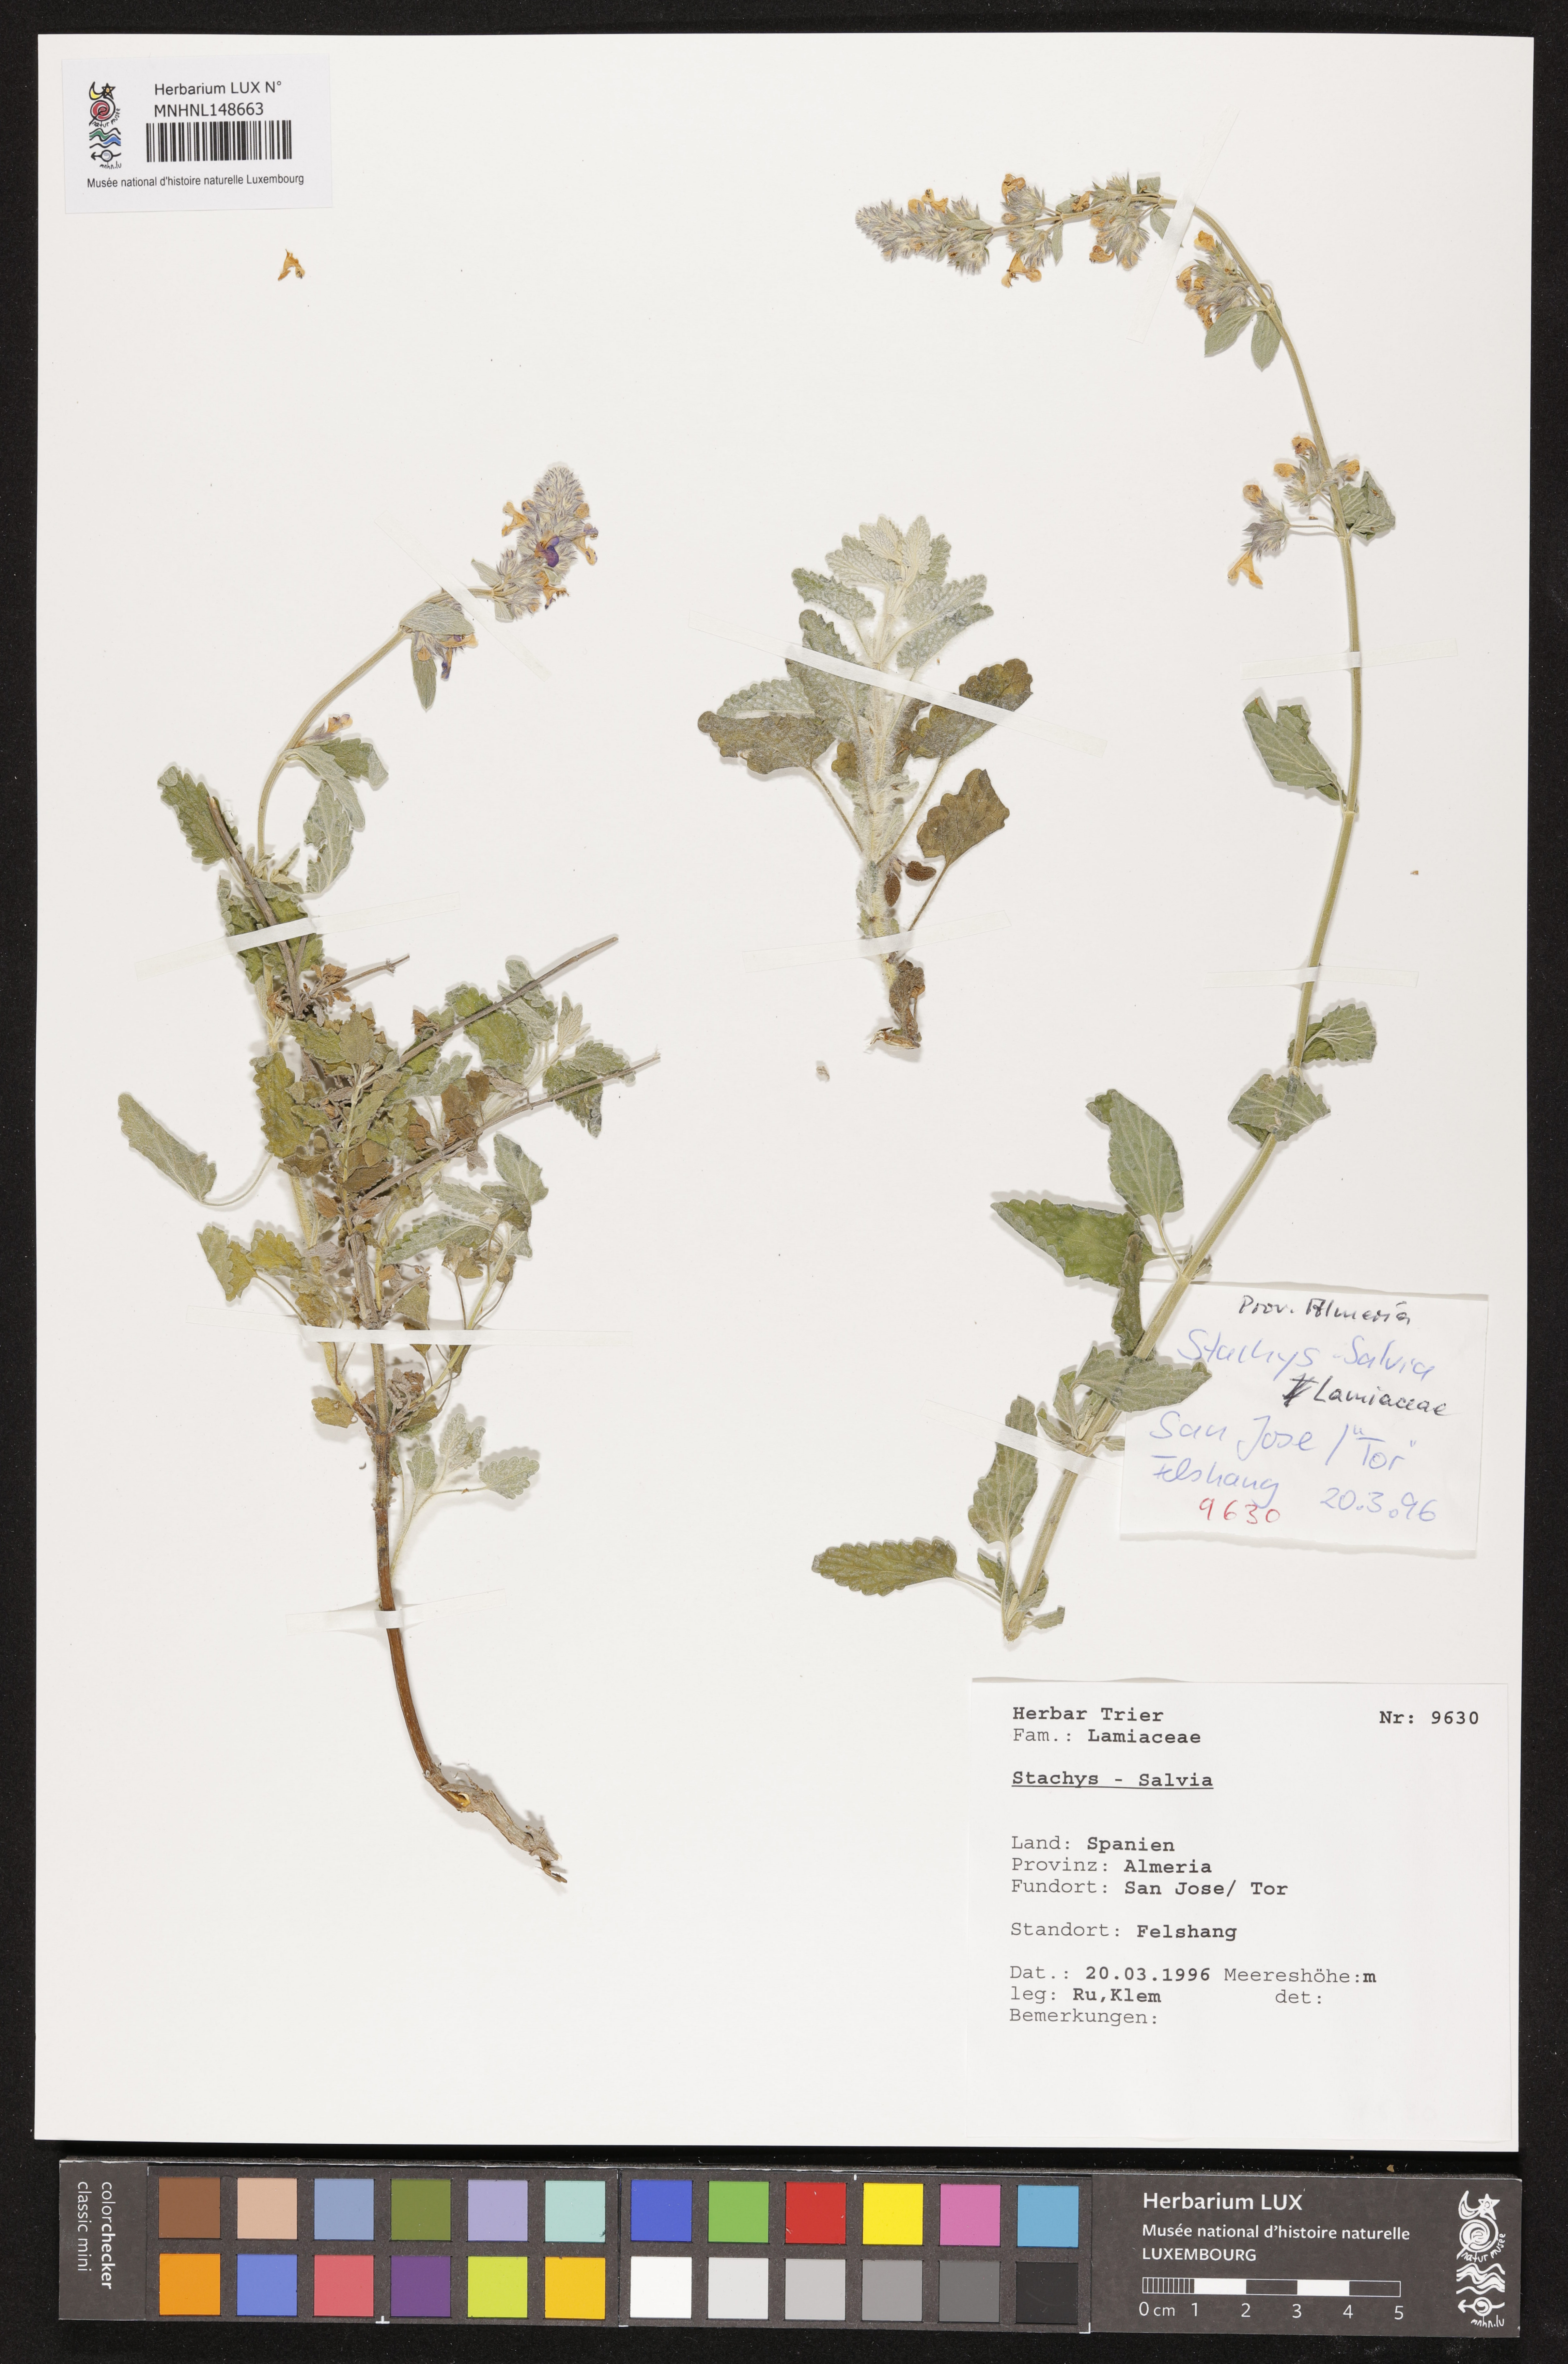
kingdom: Plantae
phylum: Tracheophyta
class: Magnoliopsida
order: Lamiales
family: Lamiaceae
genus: Stachys
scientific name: Stachys
